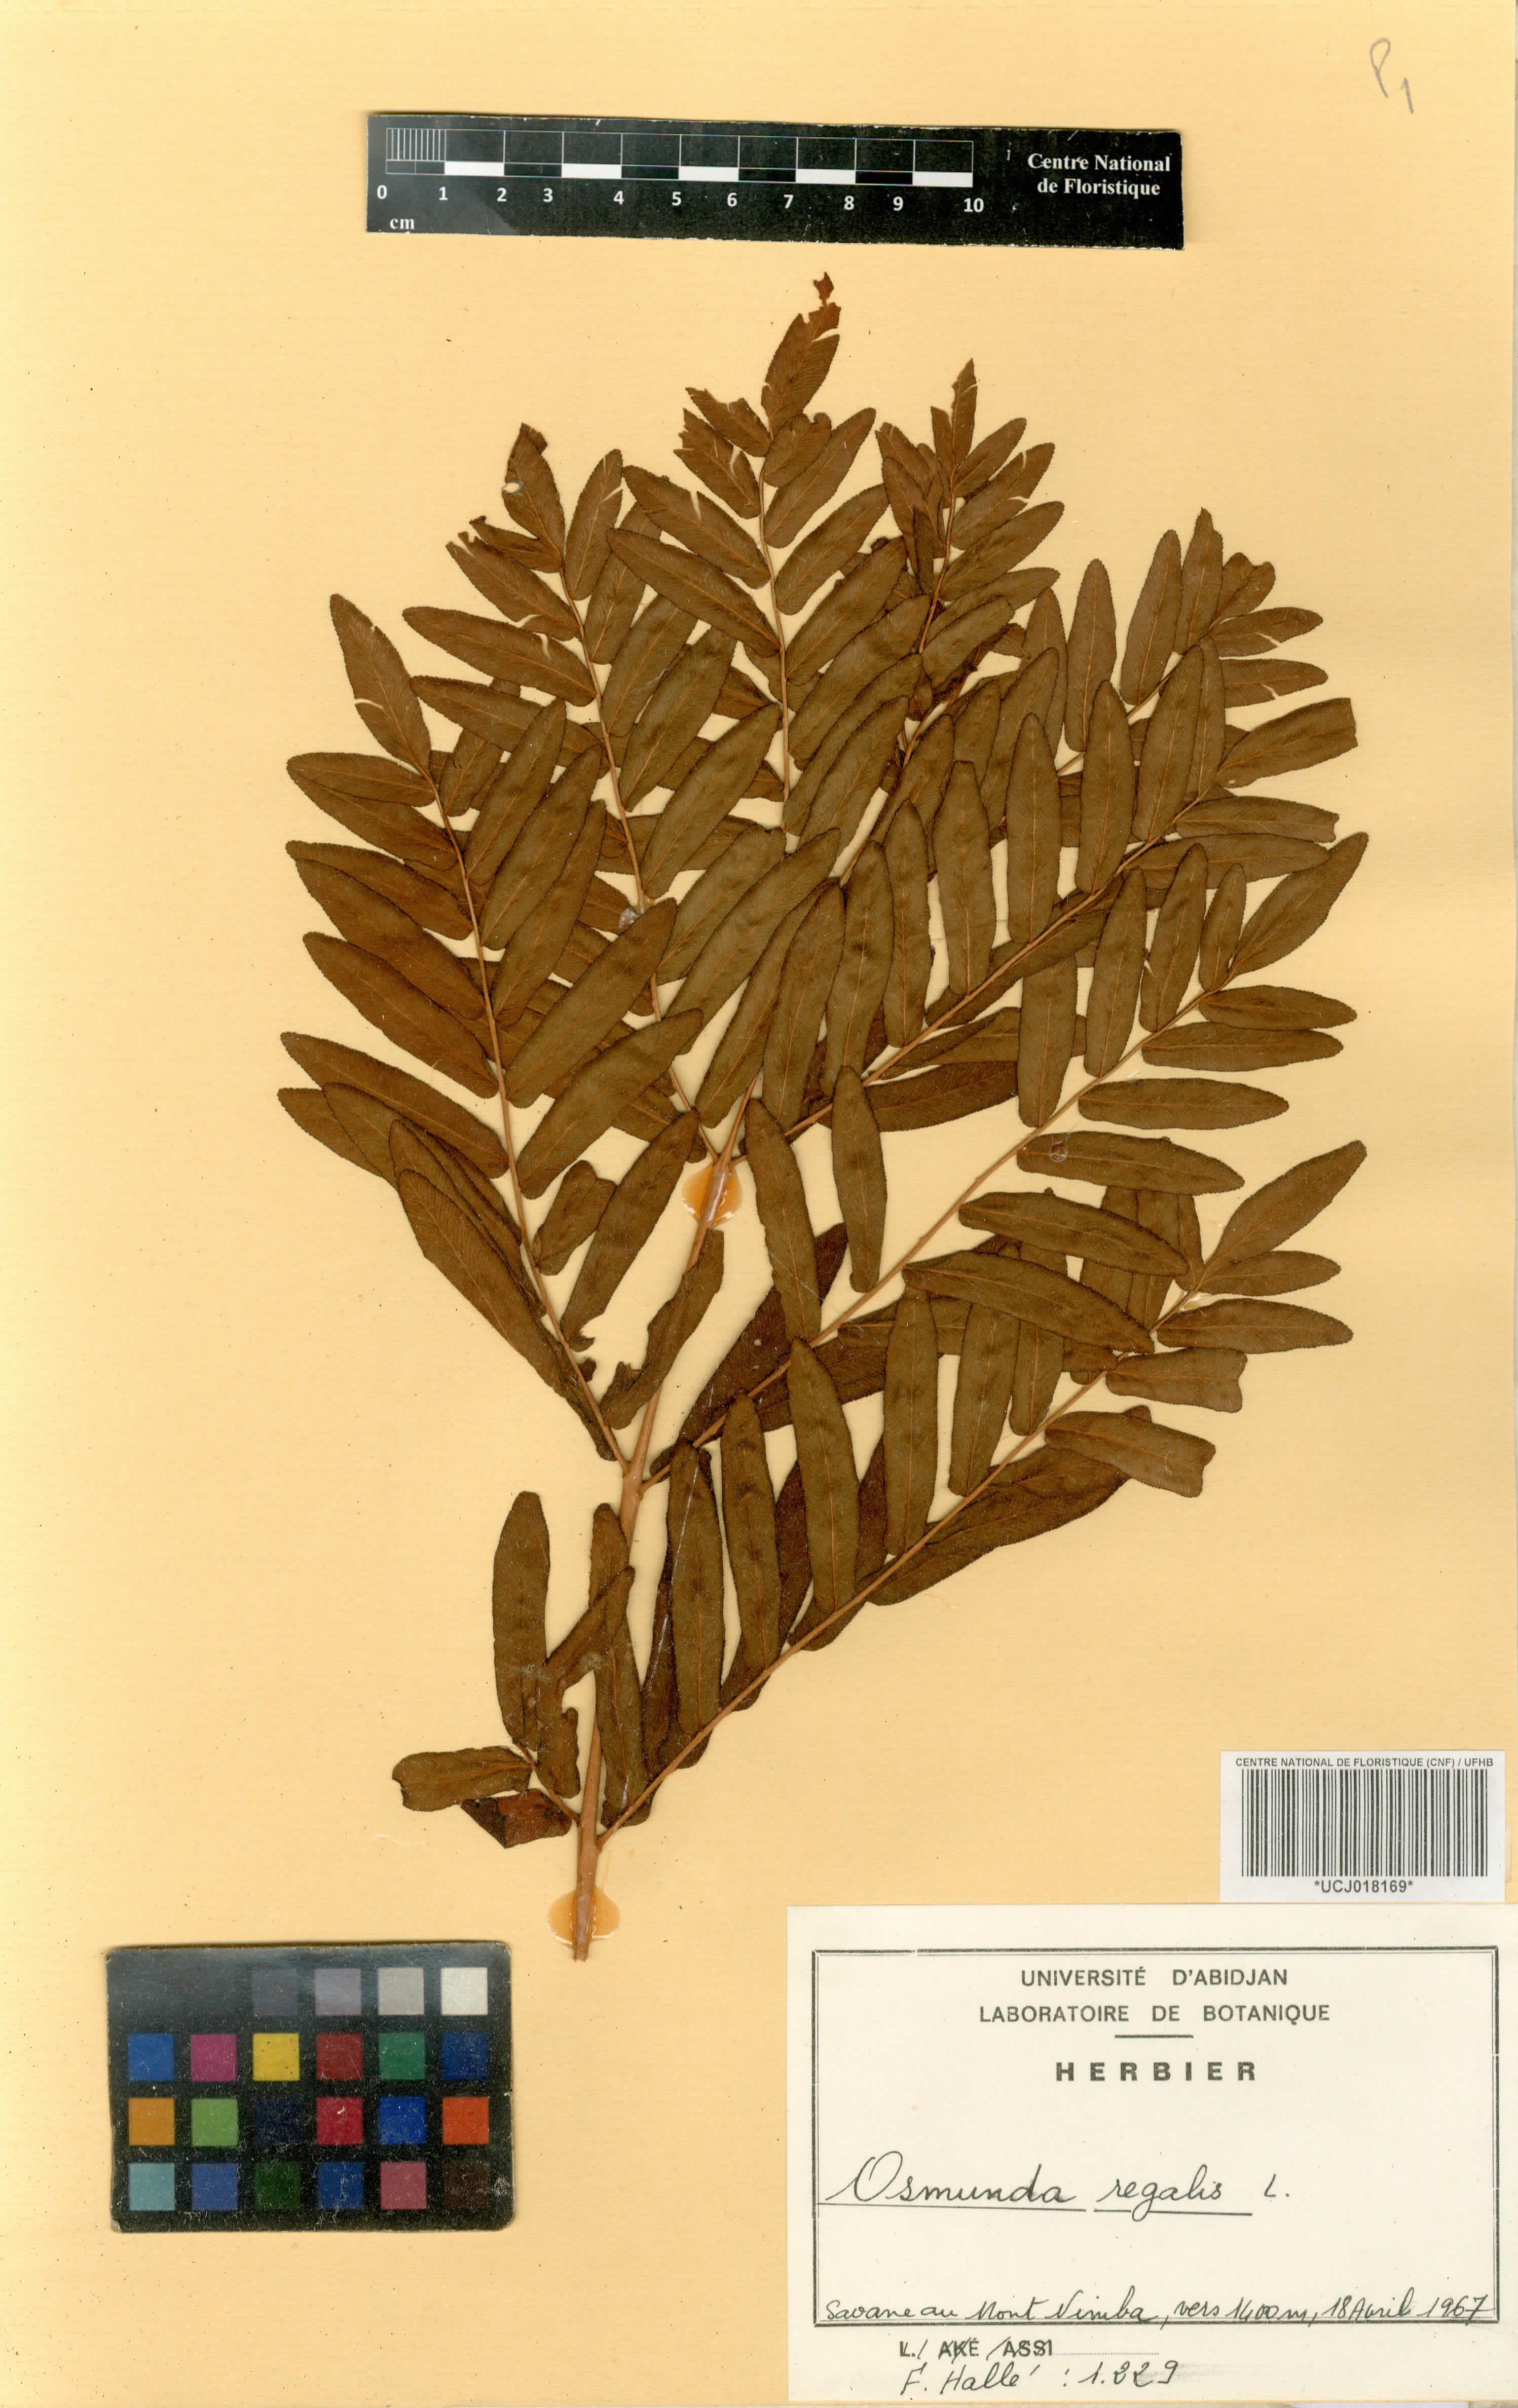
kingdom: Plantae
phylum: Tracheophyta
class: Polypodiopsida
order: Osmundales
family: Osmundaceae
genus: Osmunda
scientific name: Osmunda regalis
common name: Royal fern
